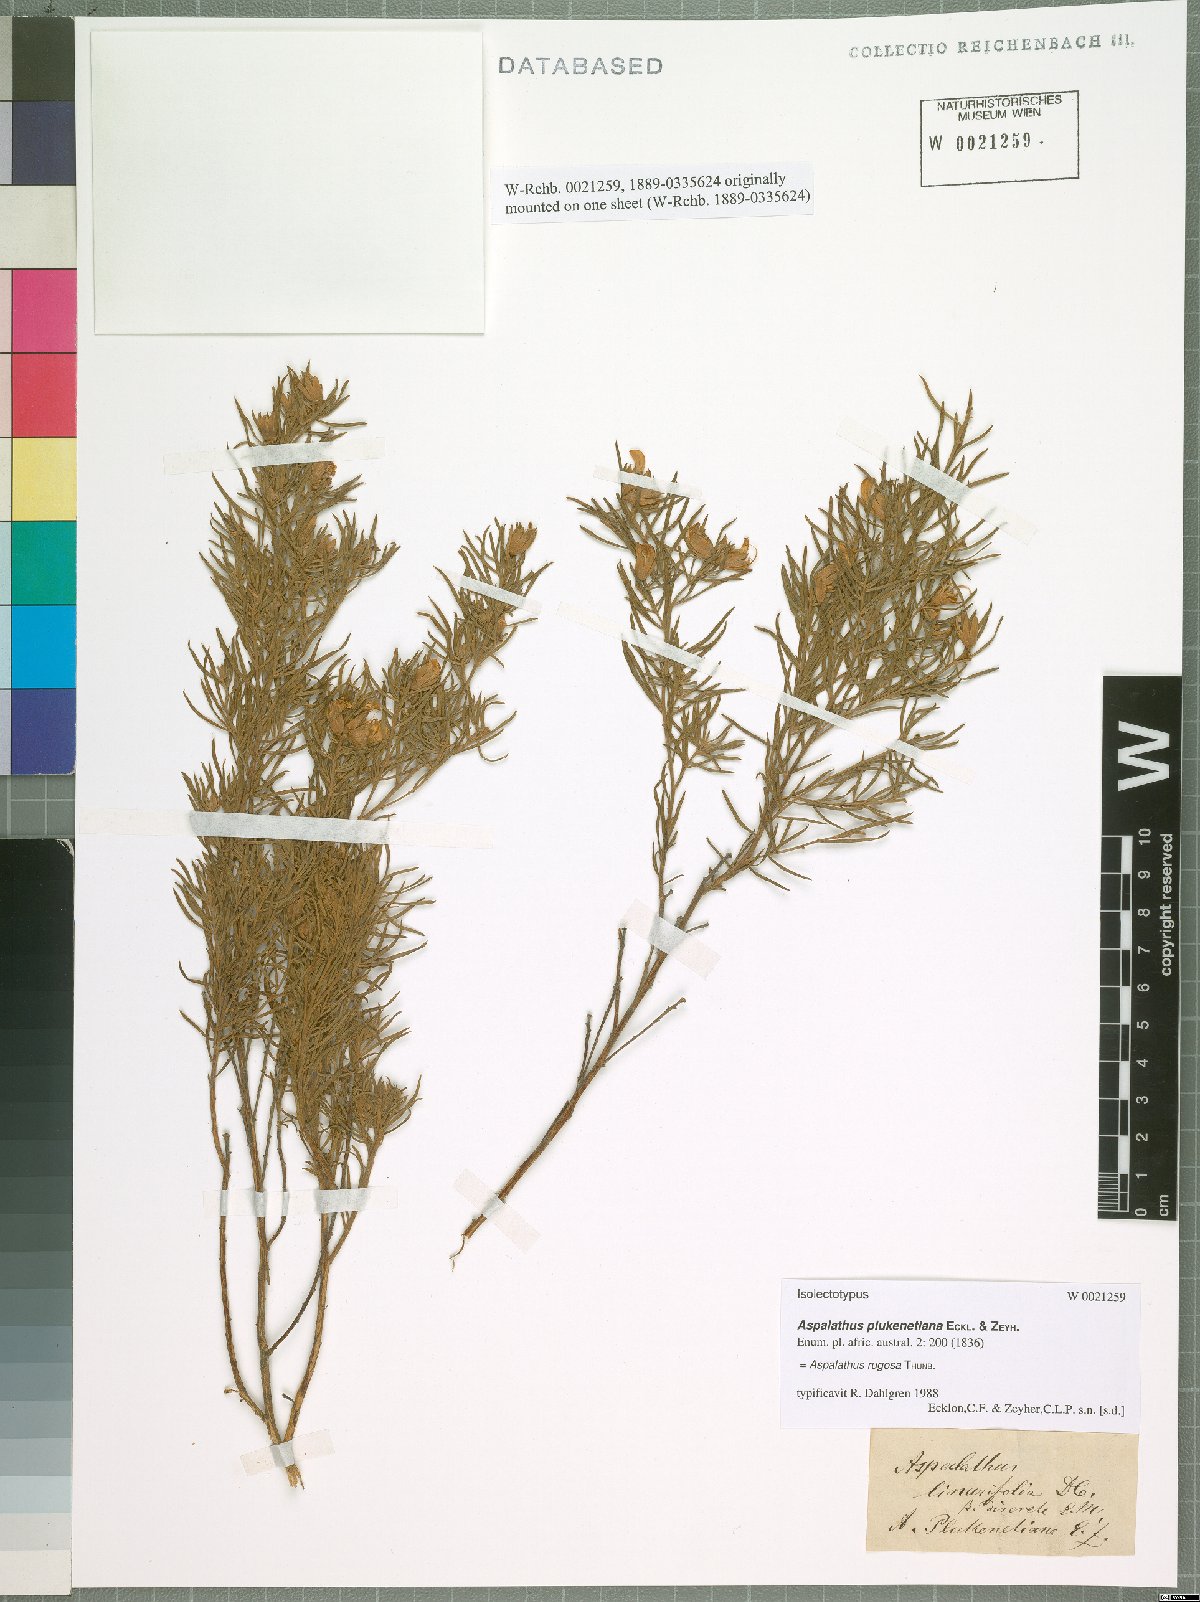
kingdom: Plantae
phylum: Tracheophyta
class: Magnoliopsida
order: Fabales
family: Fabaceae
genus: Aspalathus
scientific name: Aspalathus rugosa
